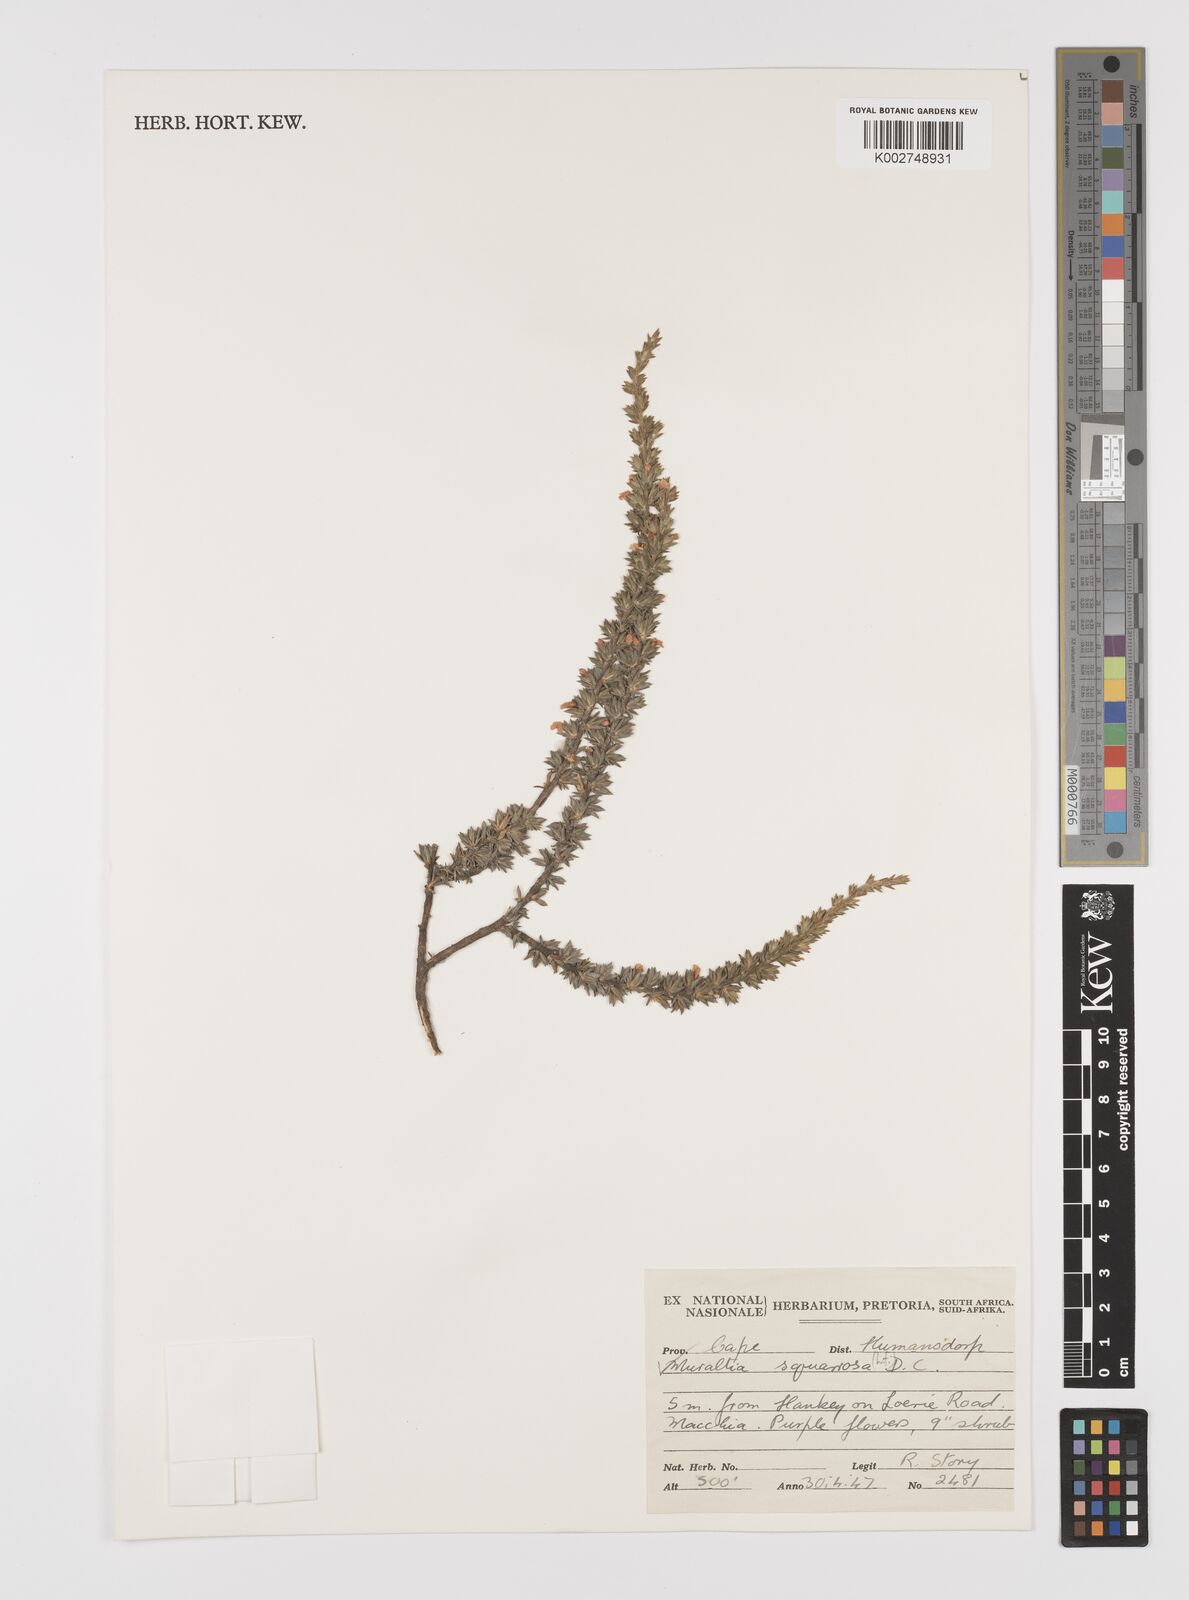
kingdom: Plantae
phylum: Tracheophyta
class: Magnoliopsida
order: Fabales
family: Polygalaceae
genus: Muraltia
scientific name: Muraltia squarrosa
